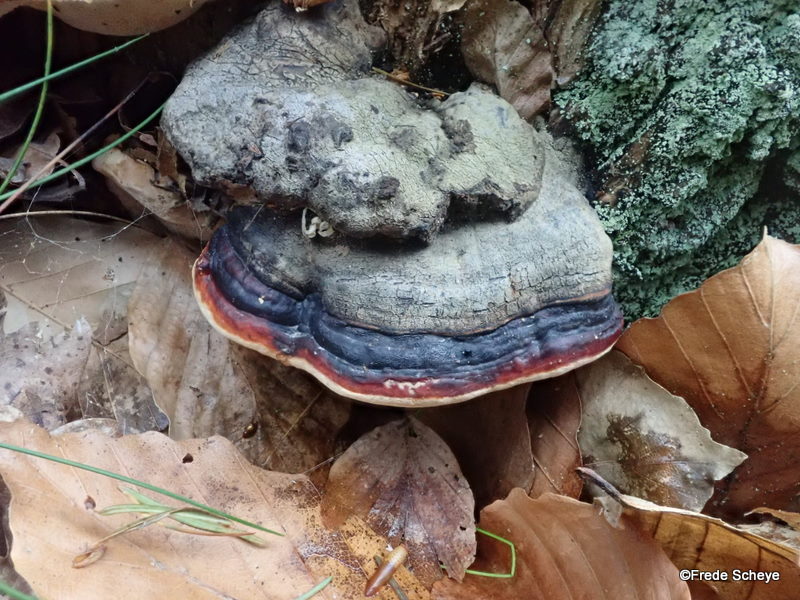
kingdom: Fungi
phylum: Basidiomycota
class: Agaricomycetes
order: Polyporales
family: Fomitopsidaceae
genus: Fomitopsis
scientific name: Fomitopsis pinicola
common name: randbæltet hovporesvamp
